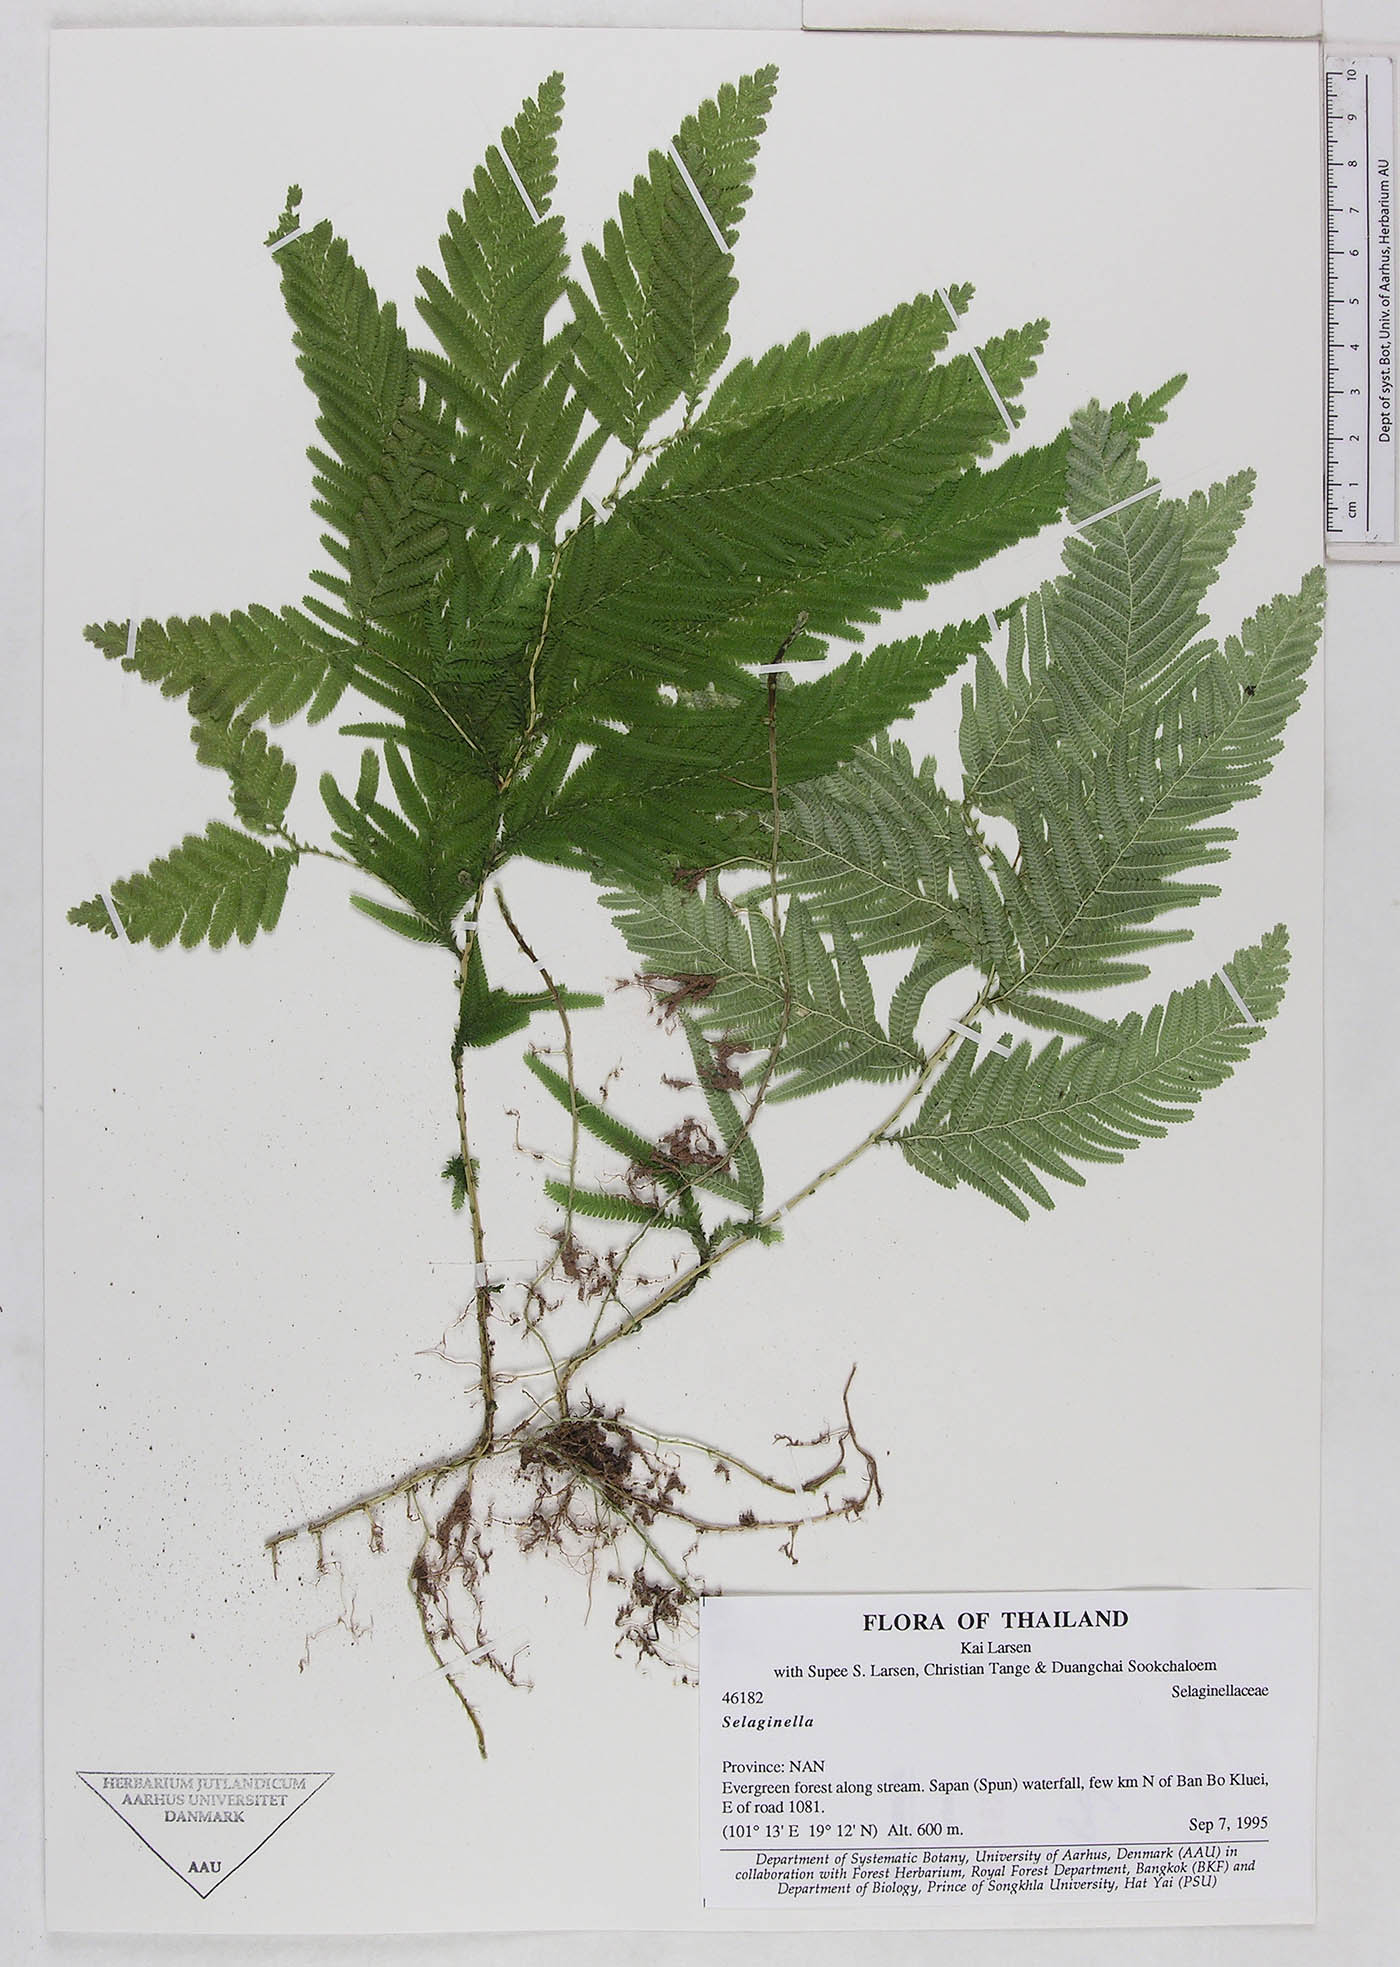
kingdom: Plantae
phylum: Tracheophyta
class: Lycopodiopsida
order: Selaginellales
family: Selaginellaceae
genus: Selaginella
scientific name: Selaginella
